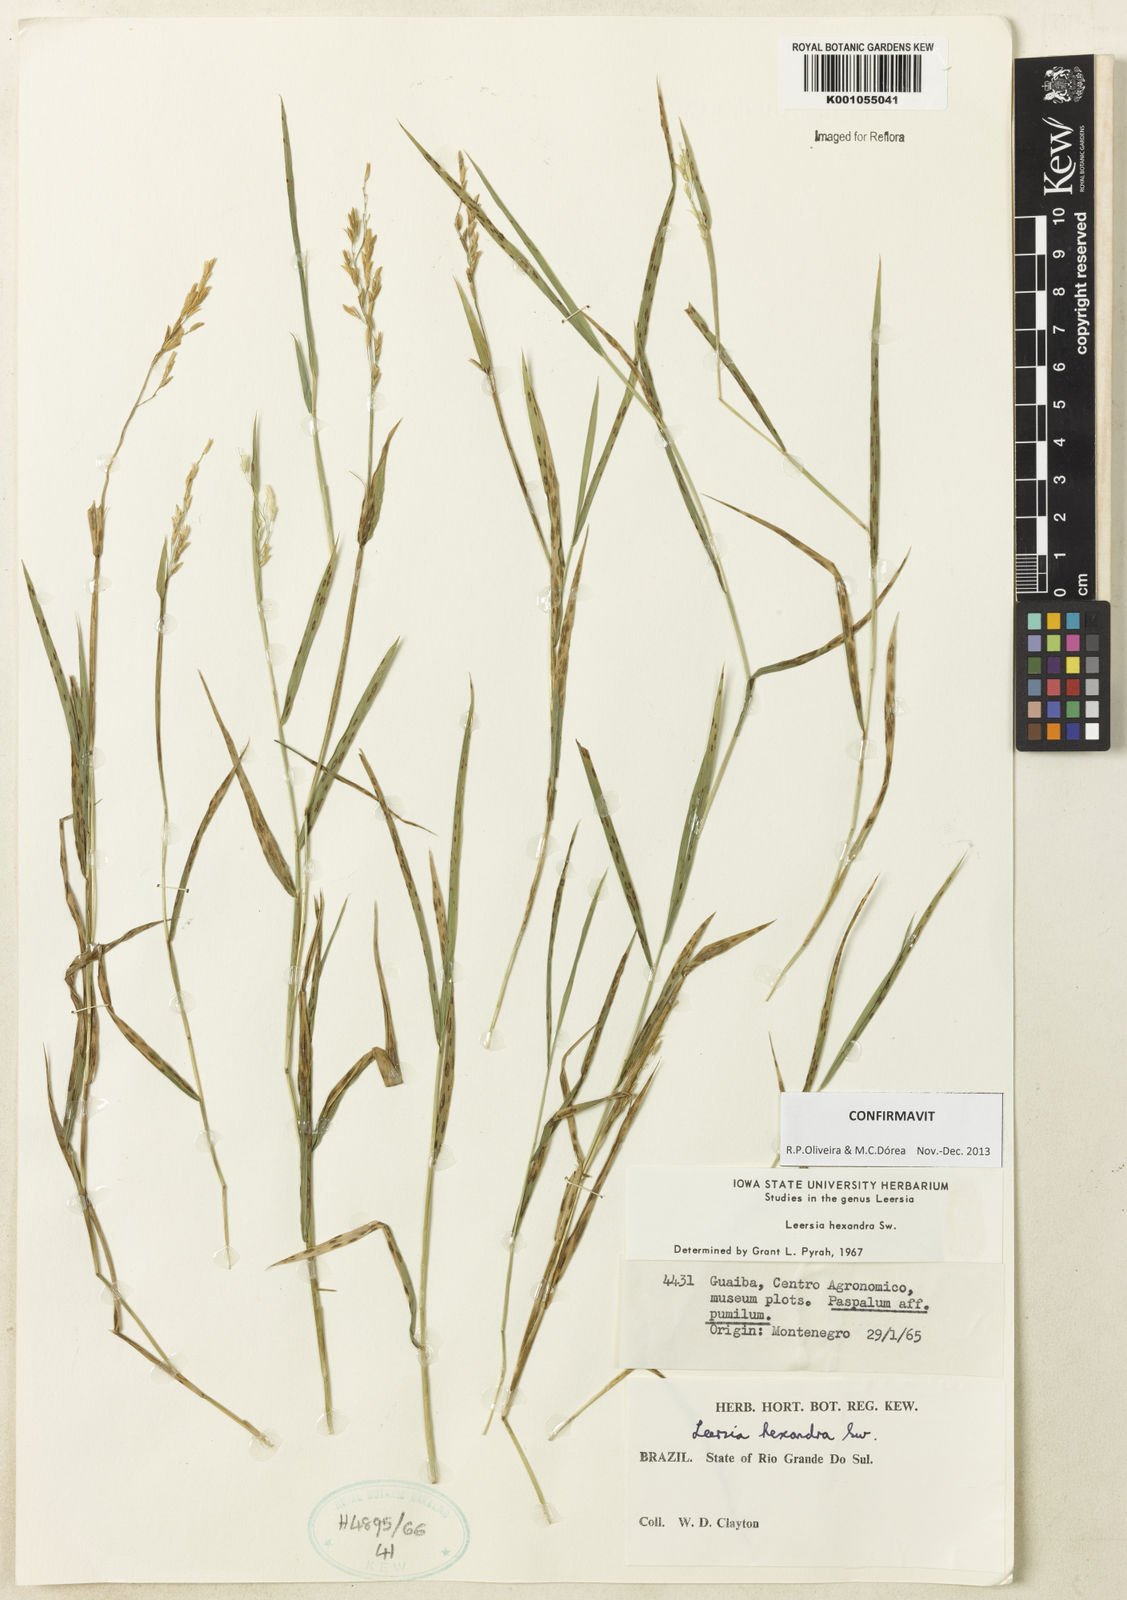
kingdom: Plantae
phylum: Tracheophyta
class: Liliopsida
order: Poales
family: Poaceae
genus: Leersia
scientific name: Leersia hexandra
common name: Southern cut grass
